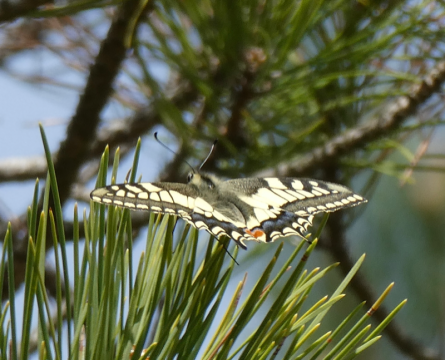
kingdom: Animalia
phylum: Arthropoda
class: Insecta
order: Lepidoptera
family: Papilionidae
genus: Papilio
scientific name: Papilio machaon
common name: Old World Swallowtail
